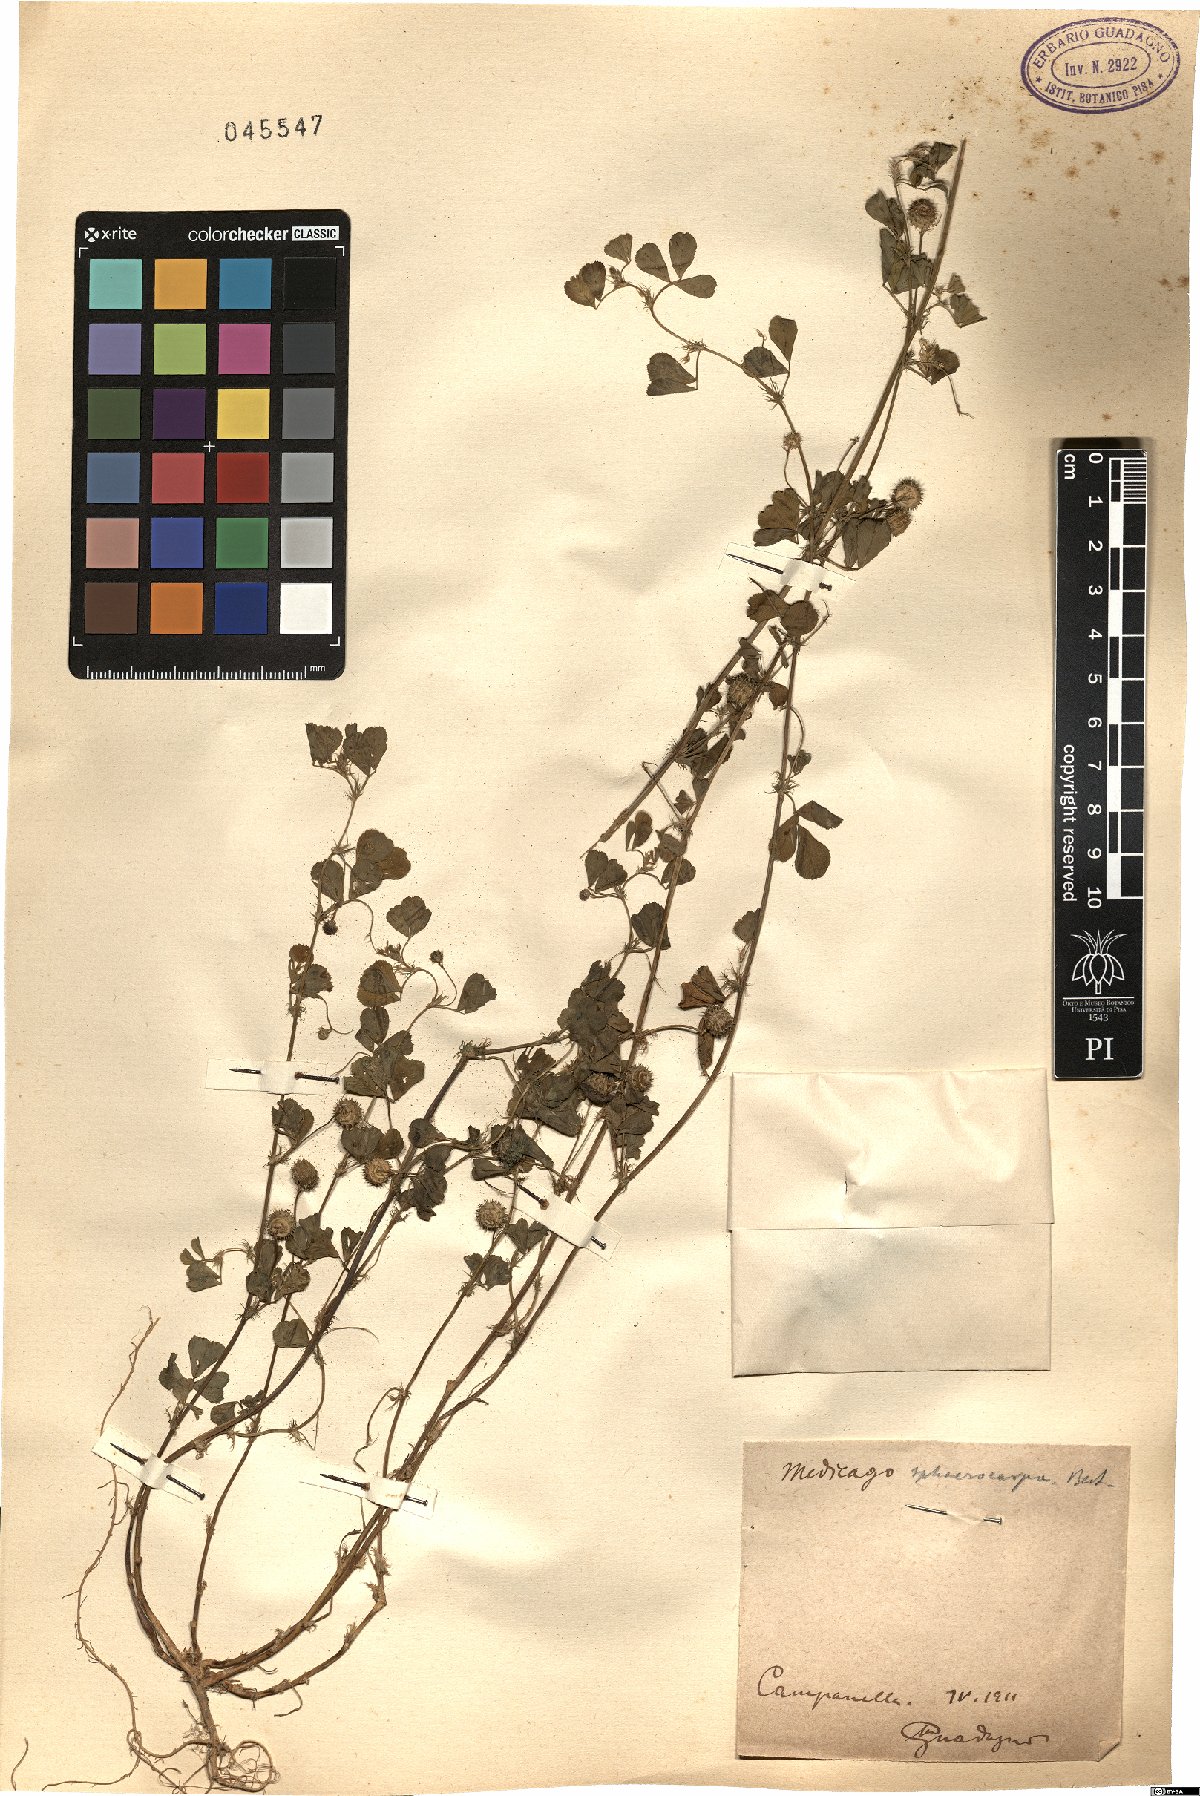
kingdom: Plantae
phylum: Tracheophyta
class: Magnoliopsida
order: Fabales
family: Fabaceae
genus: Medicago
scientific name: Medicago sphaerocarpos
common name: Sphere medic
